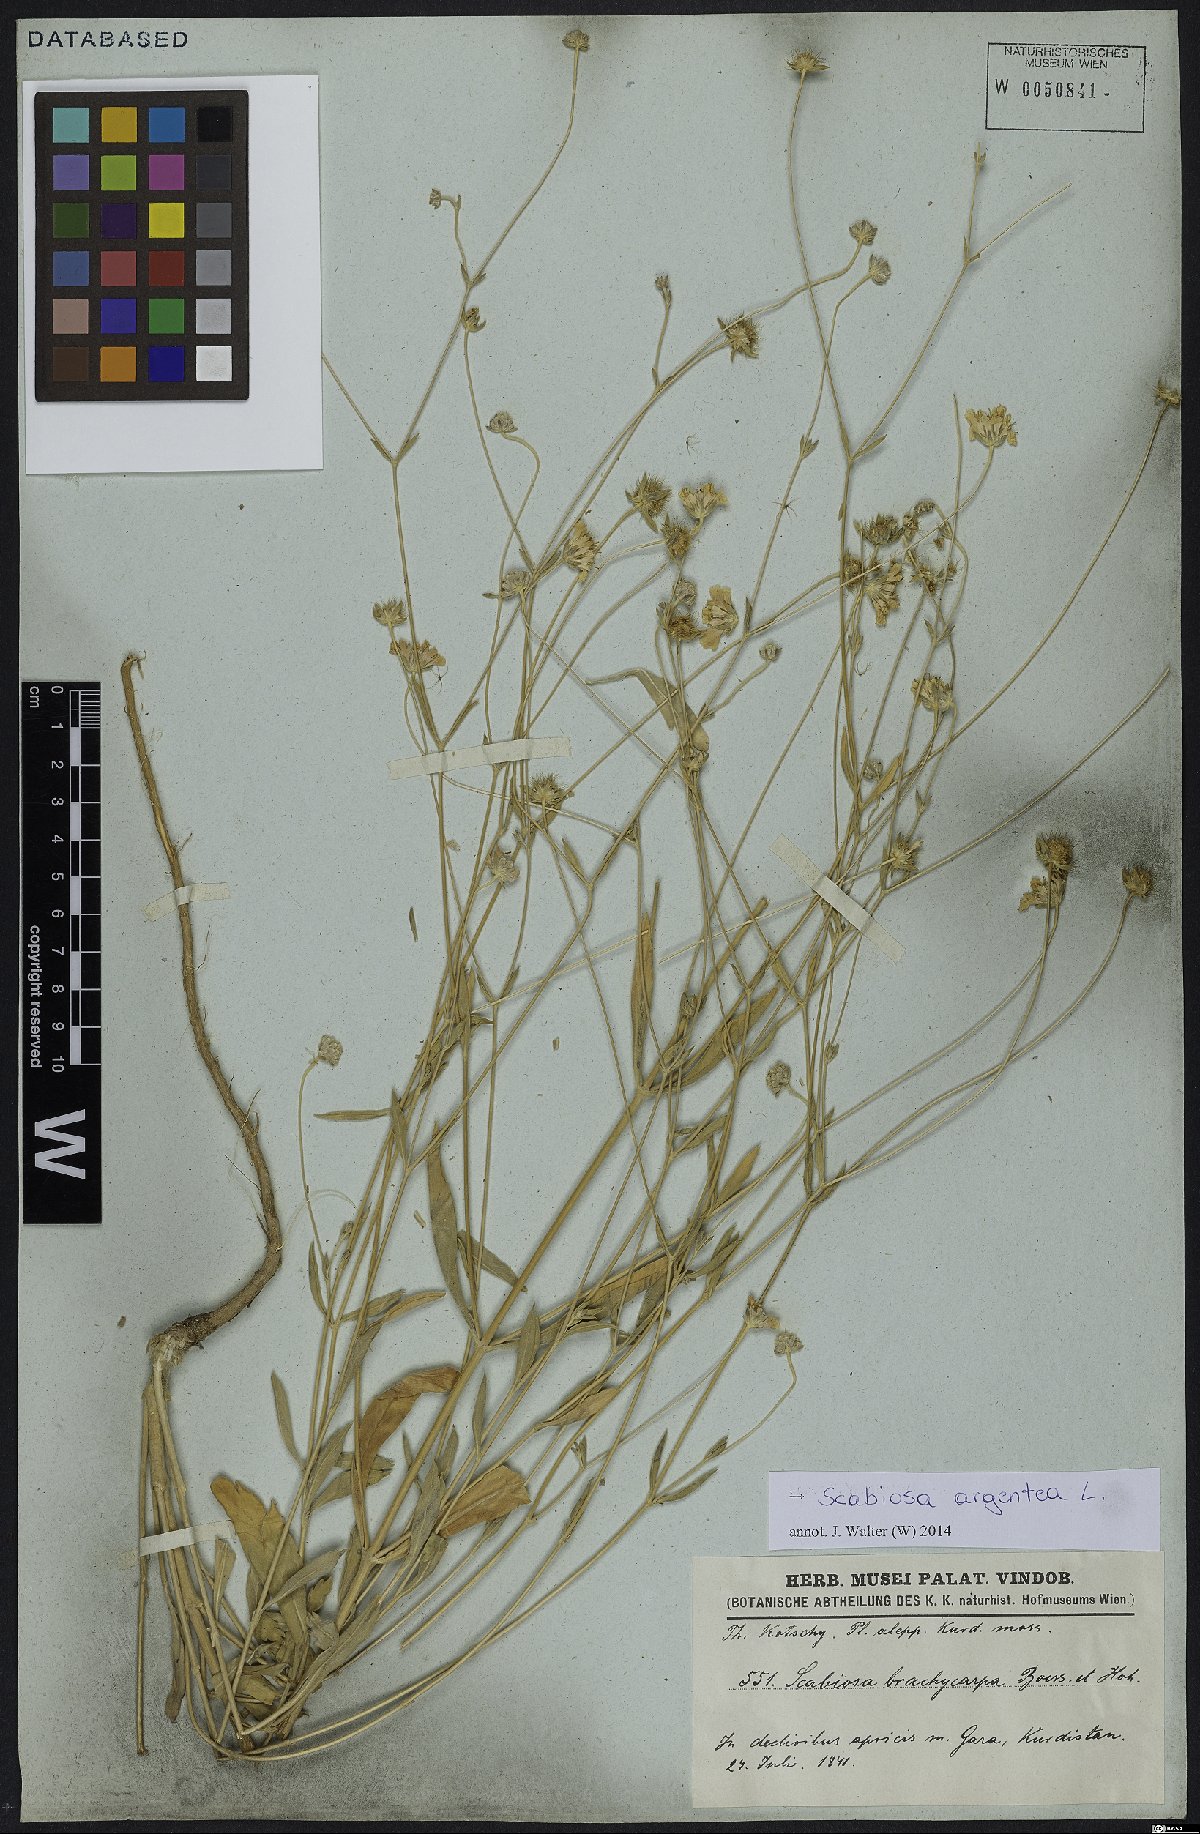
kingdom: Plantae
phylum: Tracheophyta
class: Magnoliopsida
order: Dipsacales
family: Caprifoliaceae
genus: Lomelosia
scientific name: Lomelosia argentea
